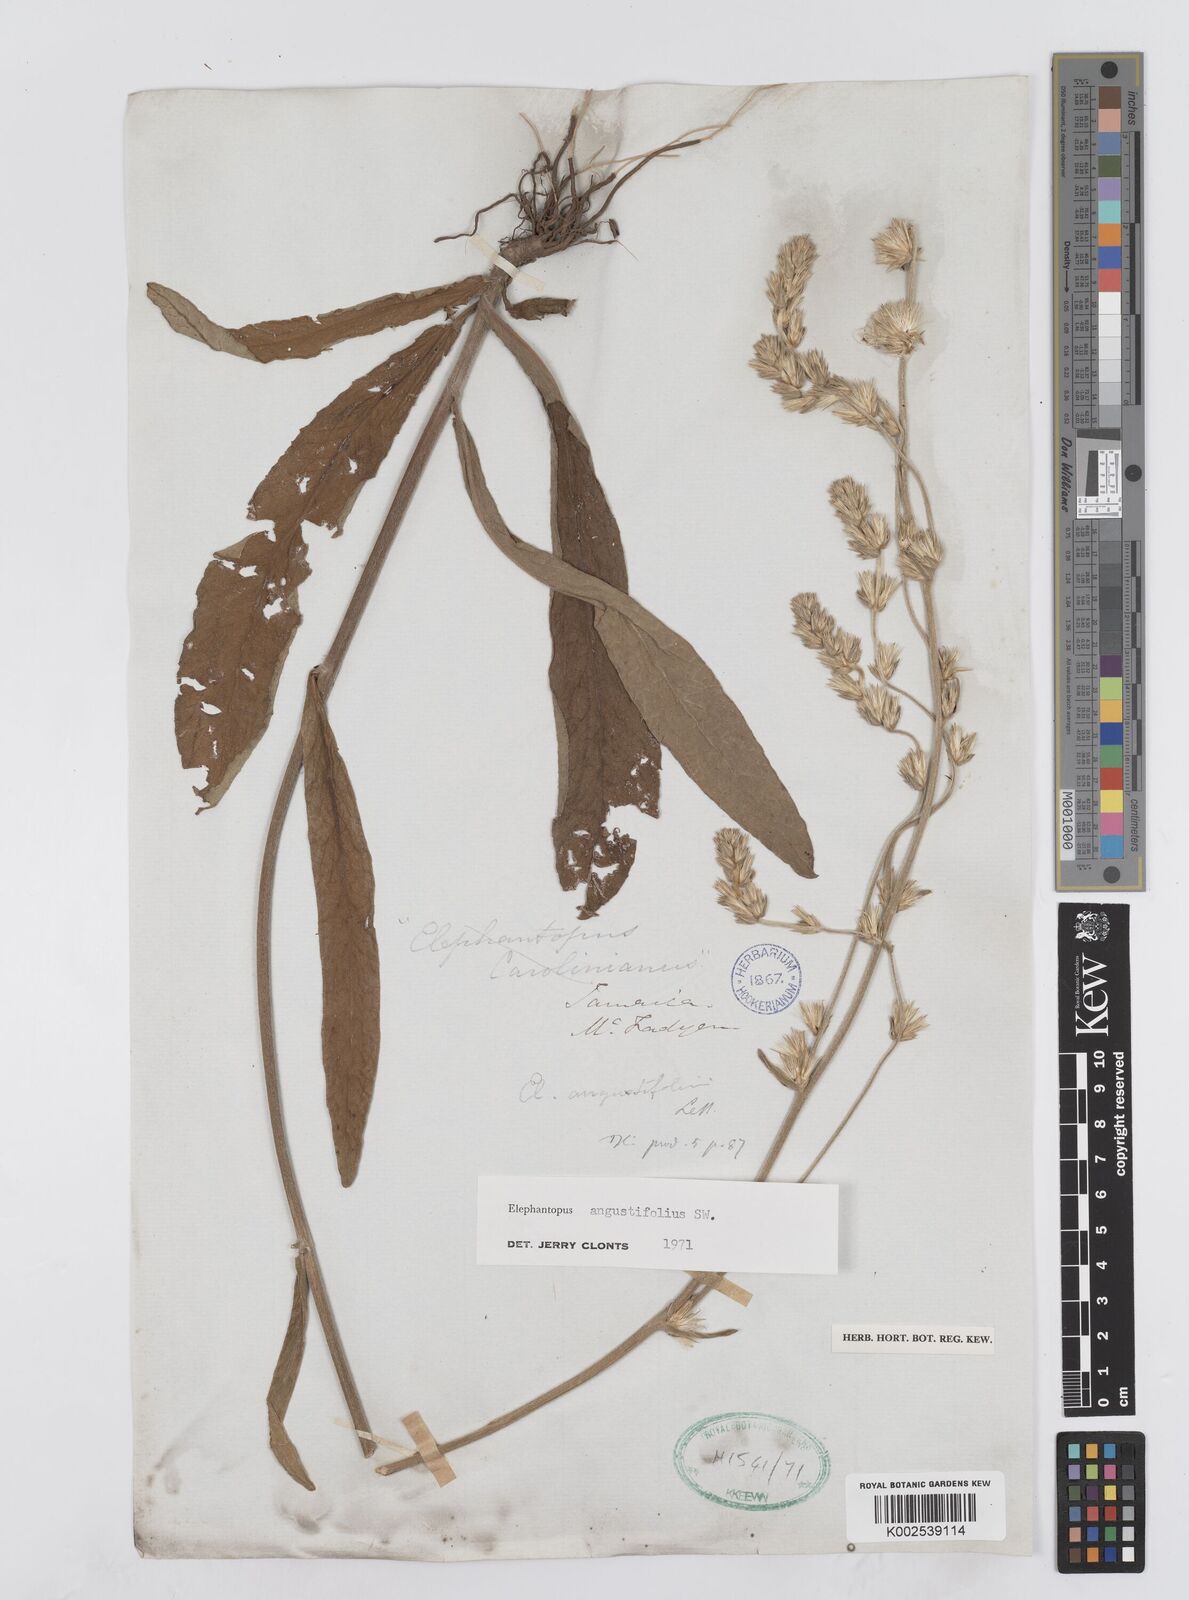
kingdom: Plantae
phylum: Tracheophyta
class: Magnoliopsida
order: Asterales
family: Asteraceae
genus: Orthopappus
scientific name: Orthopappus angustifolius
